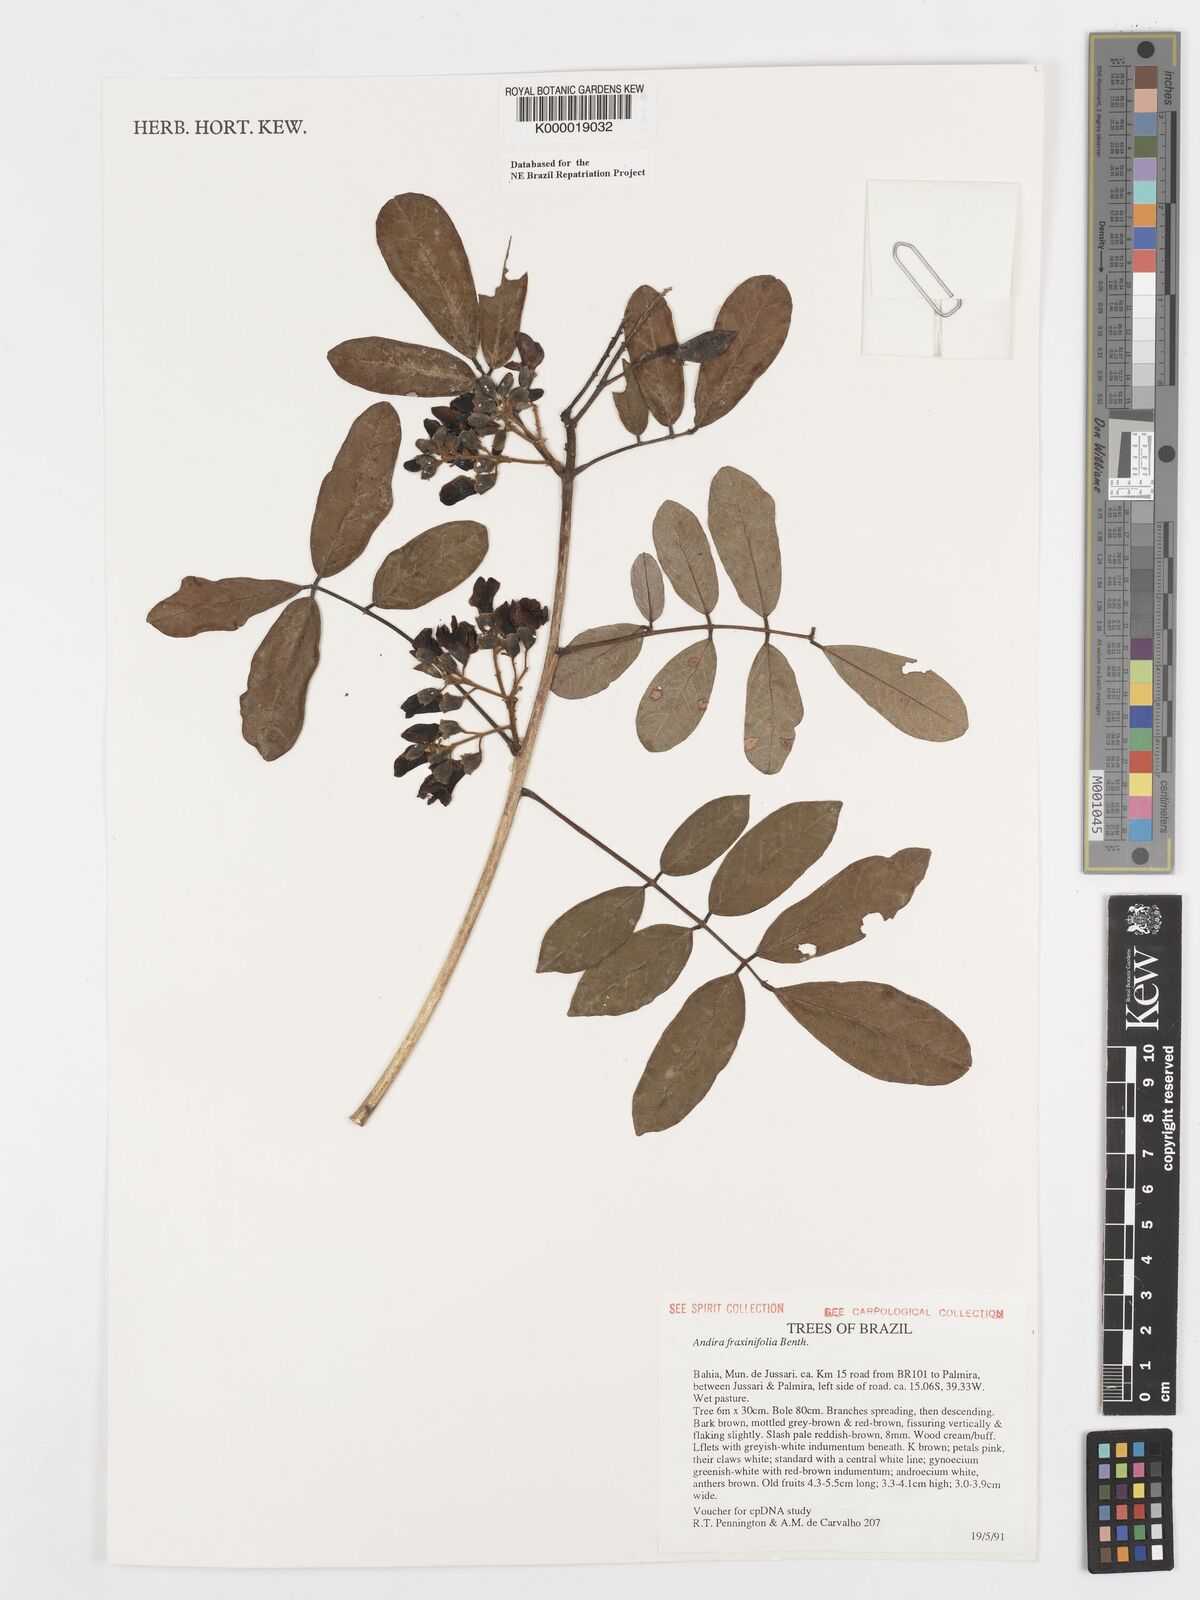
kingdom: Plantae
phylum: Tracheophyta
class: Magnoliopsida
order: Fabales
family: Fabaceae
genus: Andira
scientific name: Andira fraxinifolia
